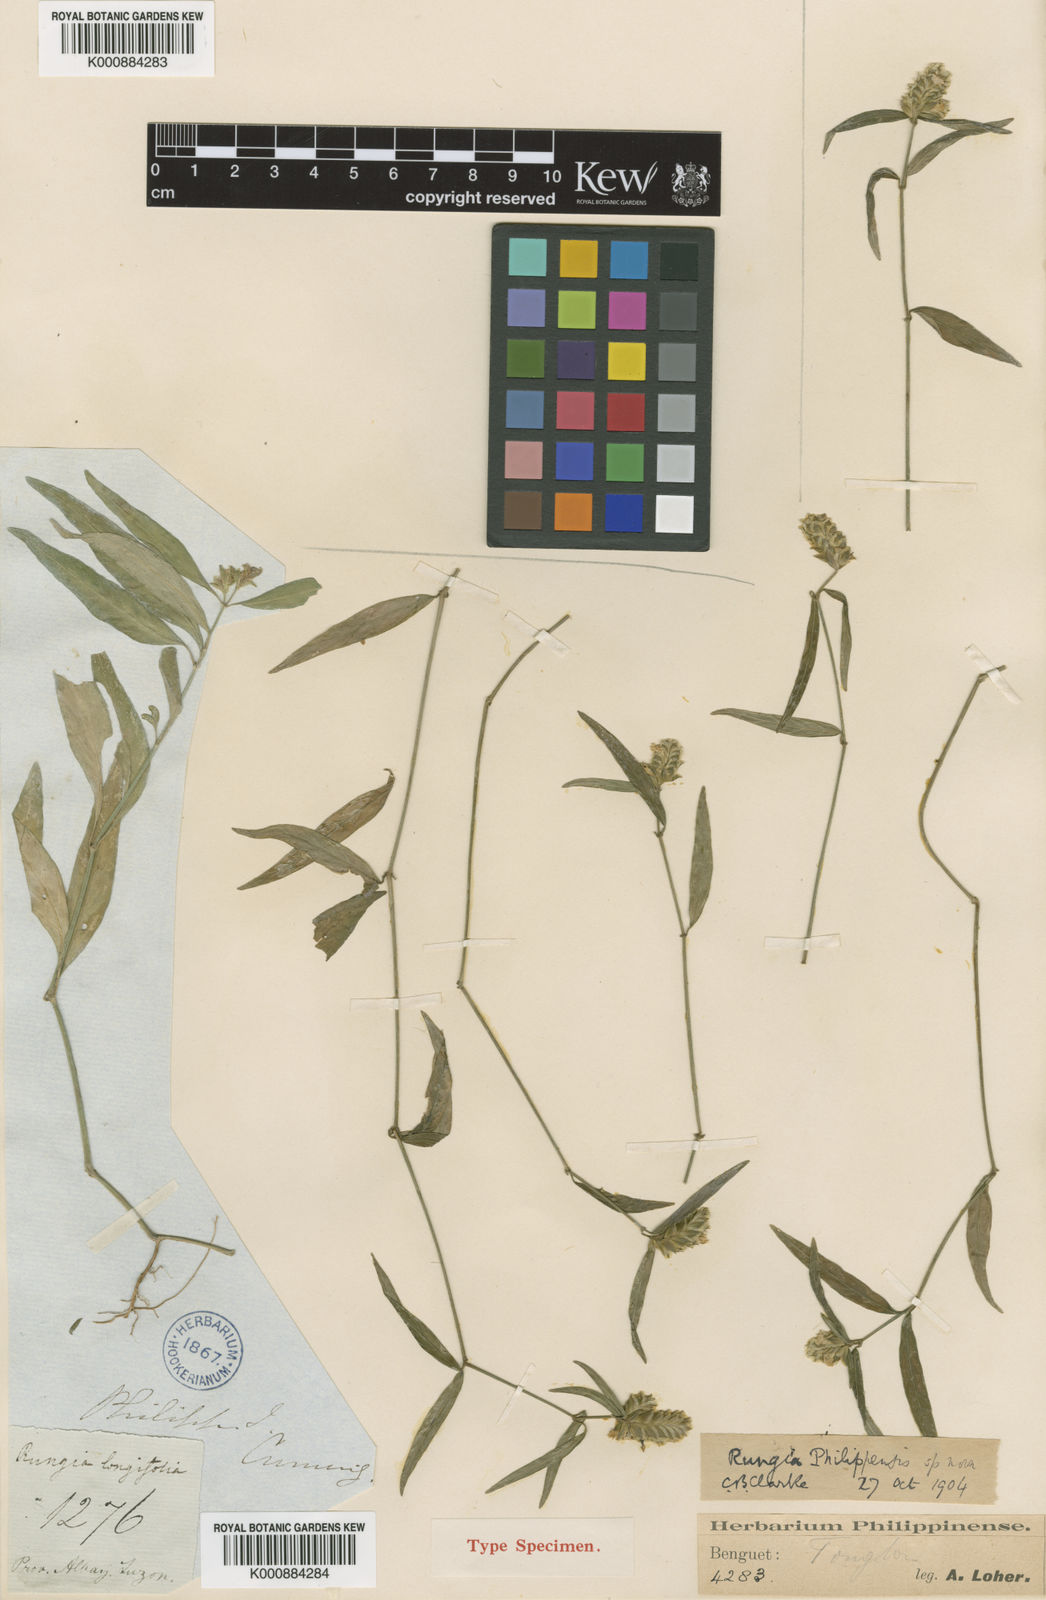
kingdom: Plantae
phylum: Tracheophyta
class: Magnoliopsida
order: Lamiales
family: Acanthaceae
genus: Justicia
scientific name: Justicia
